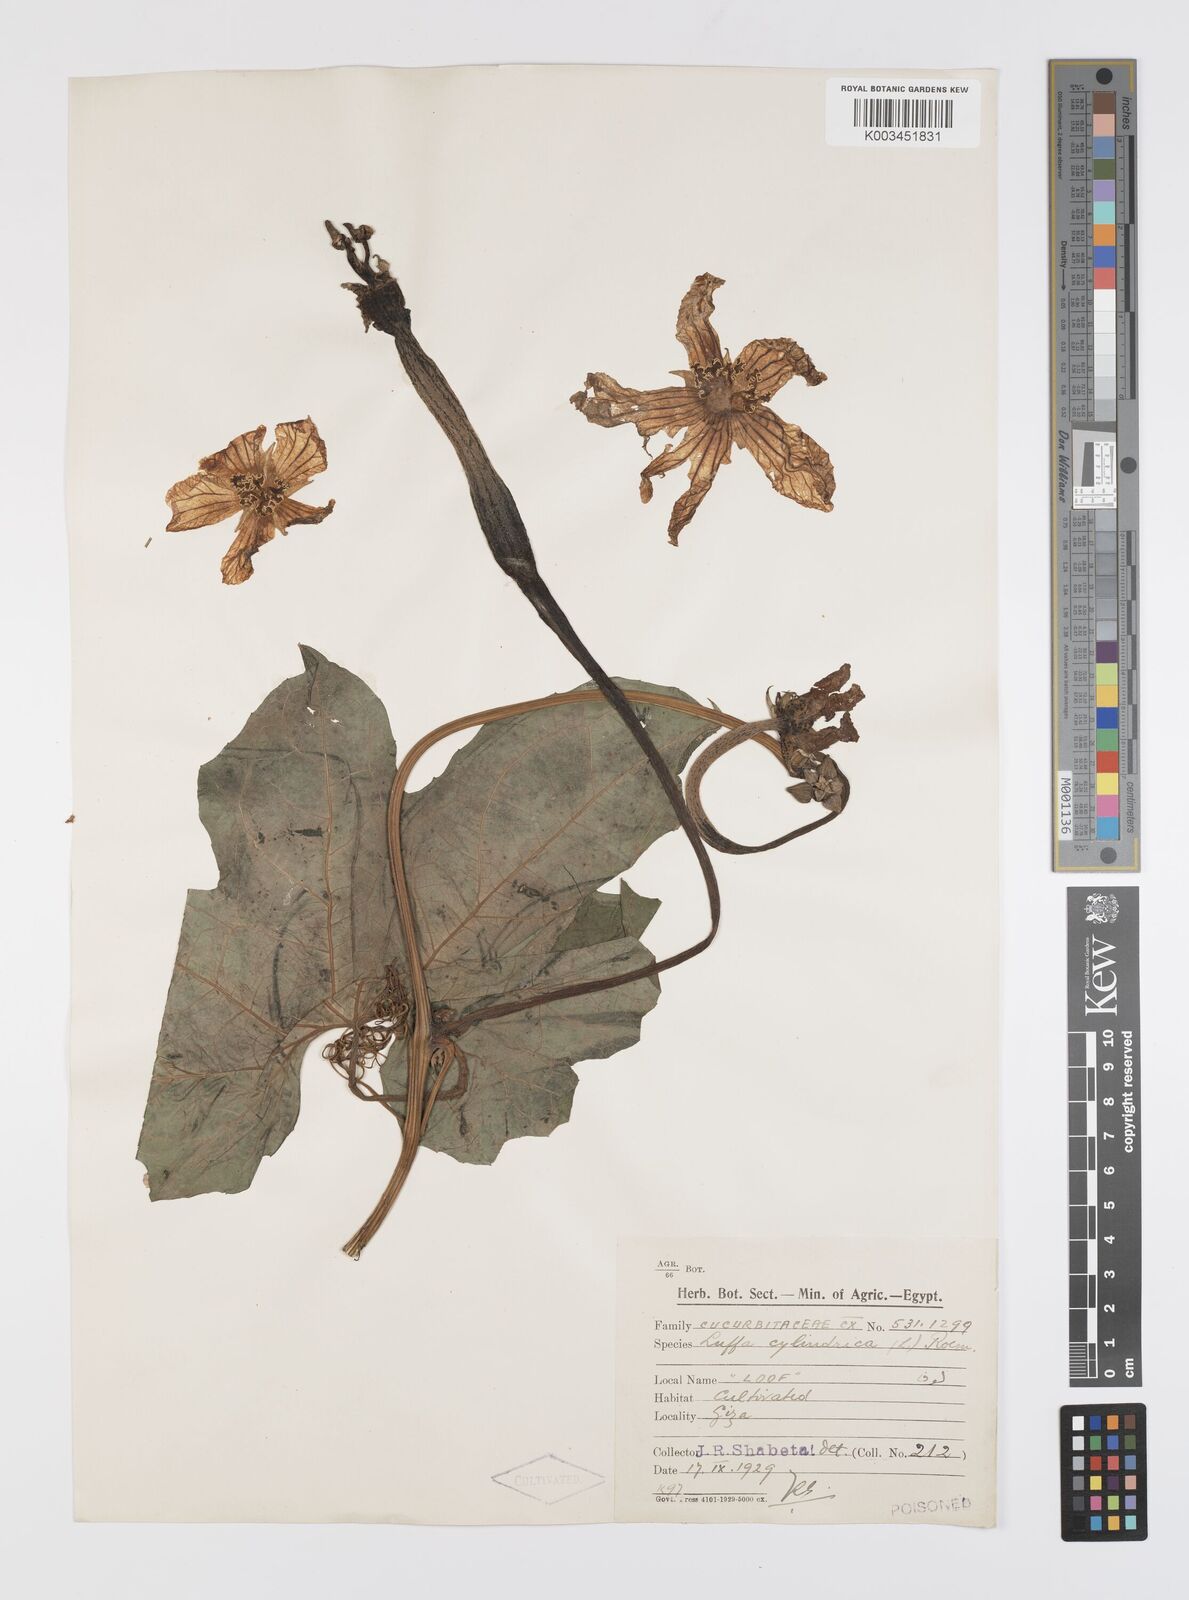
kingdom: Plantae
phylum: Tracheophyta
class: Magnoliopsida
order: Cucurbitales
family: Cucurbitaceae
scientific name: Cucurbitaceae
